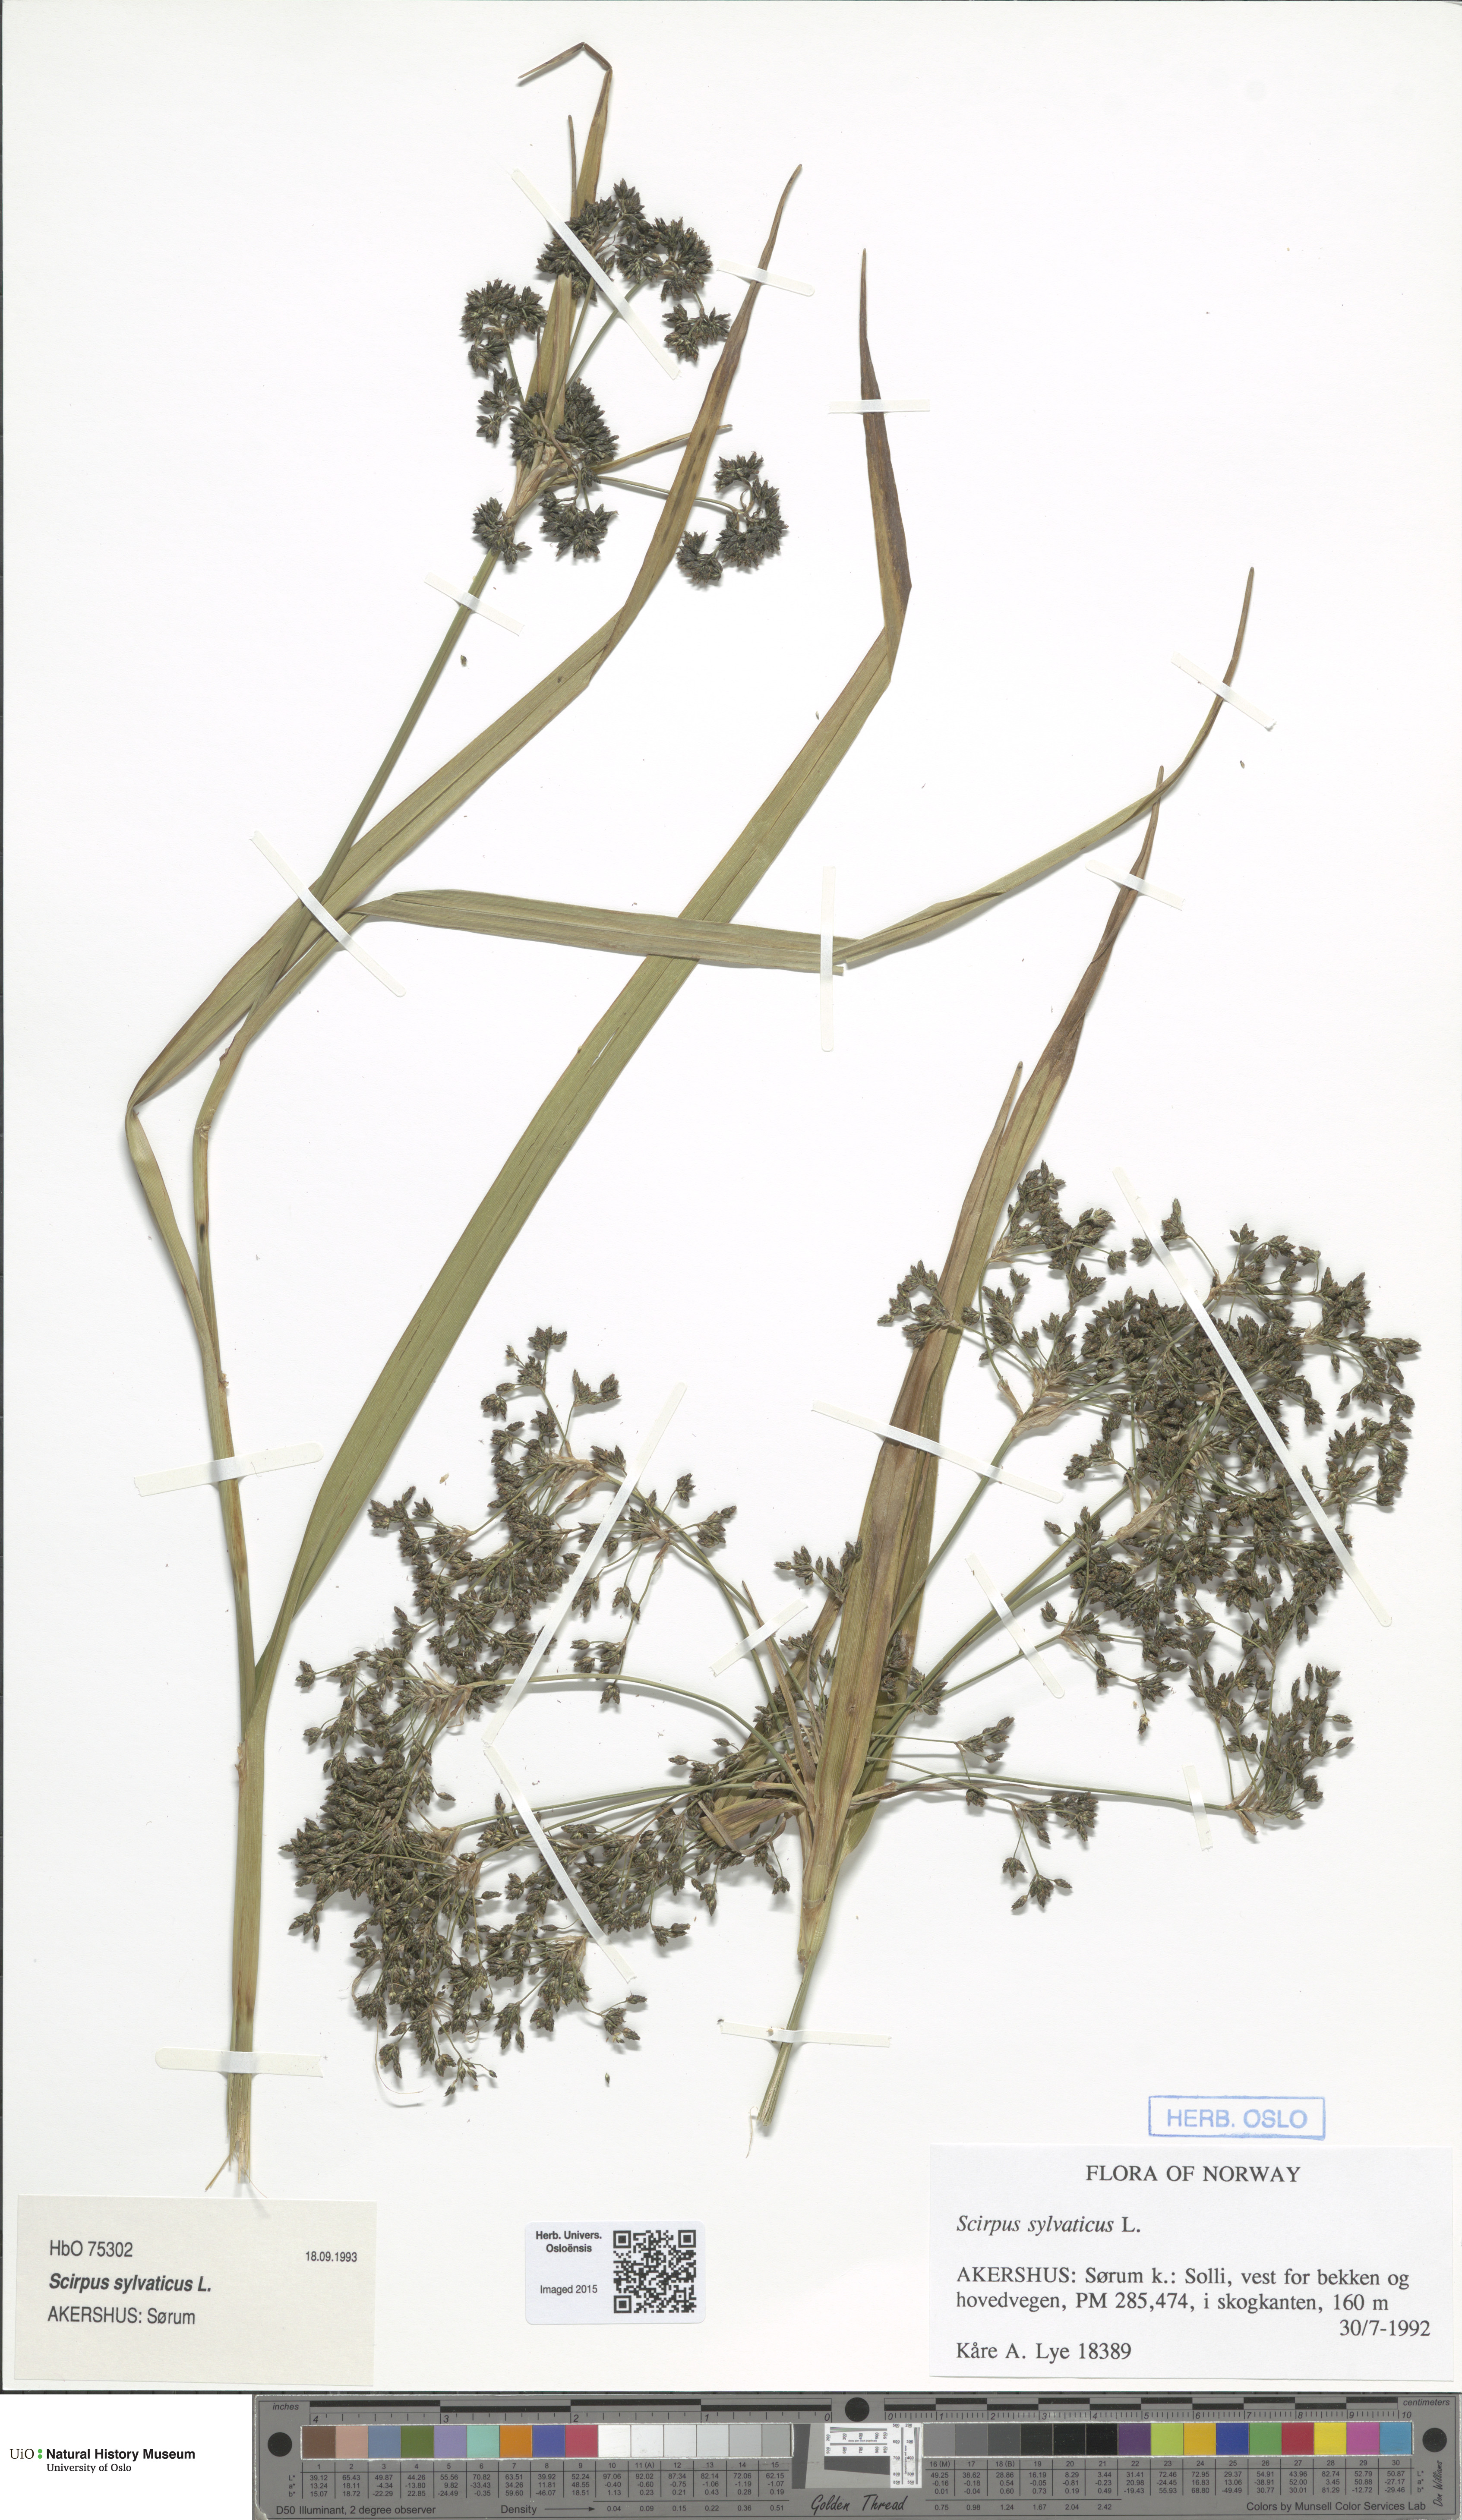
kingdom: Plantae
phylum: Tracheophyta
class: Liliopsida
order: Poales
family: Cyperaceae
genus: Scirpus
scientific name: Scirpus sylvaticus
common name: Wood club-rush
